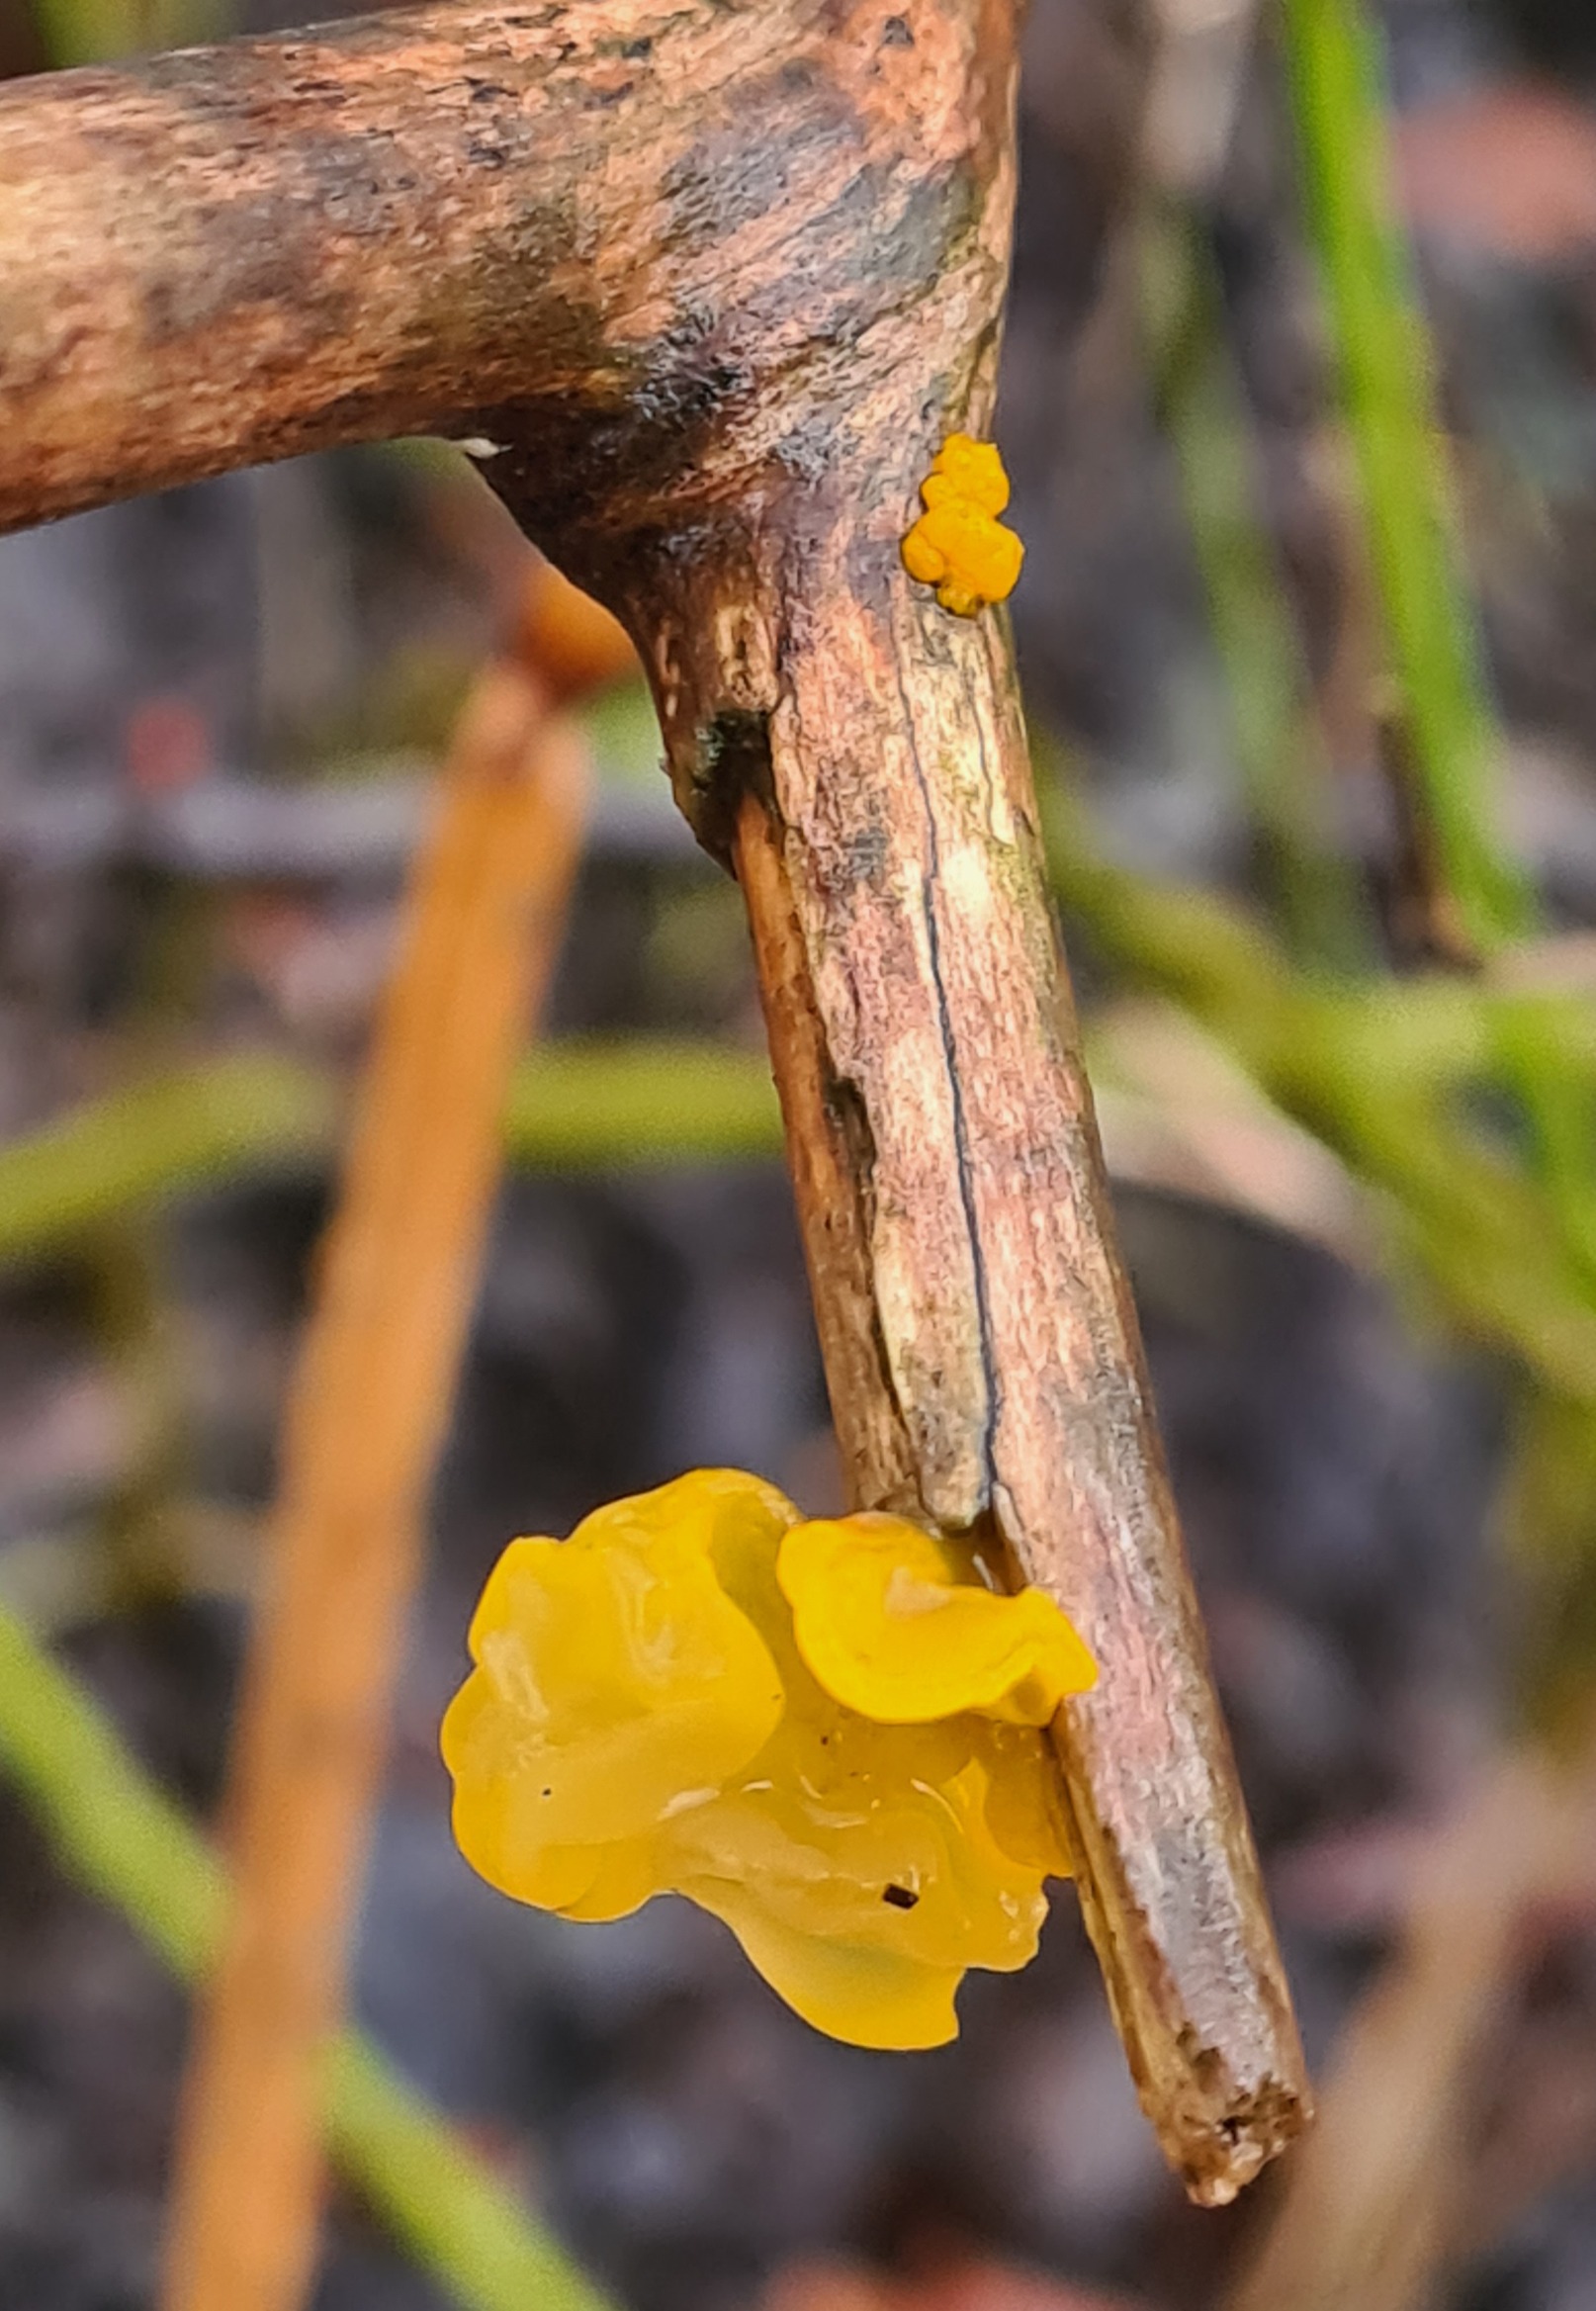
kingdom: Fungi
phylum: Basidiomycota
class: Tremellomycetes
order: Tremellales
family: Tremellaceae
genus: Tremella
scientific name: Tremella mesenterica
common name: Gul bævresvamp
